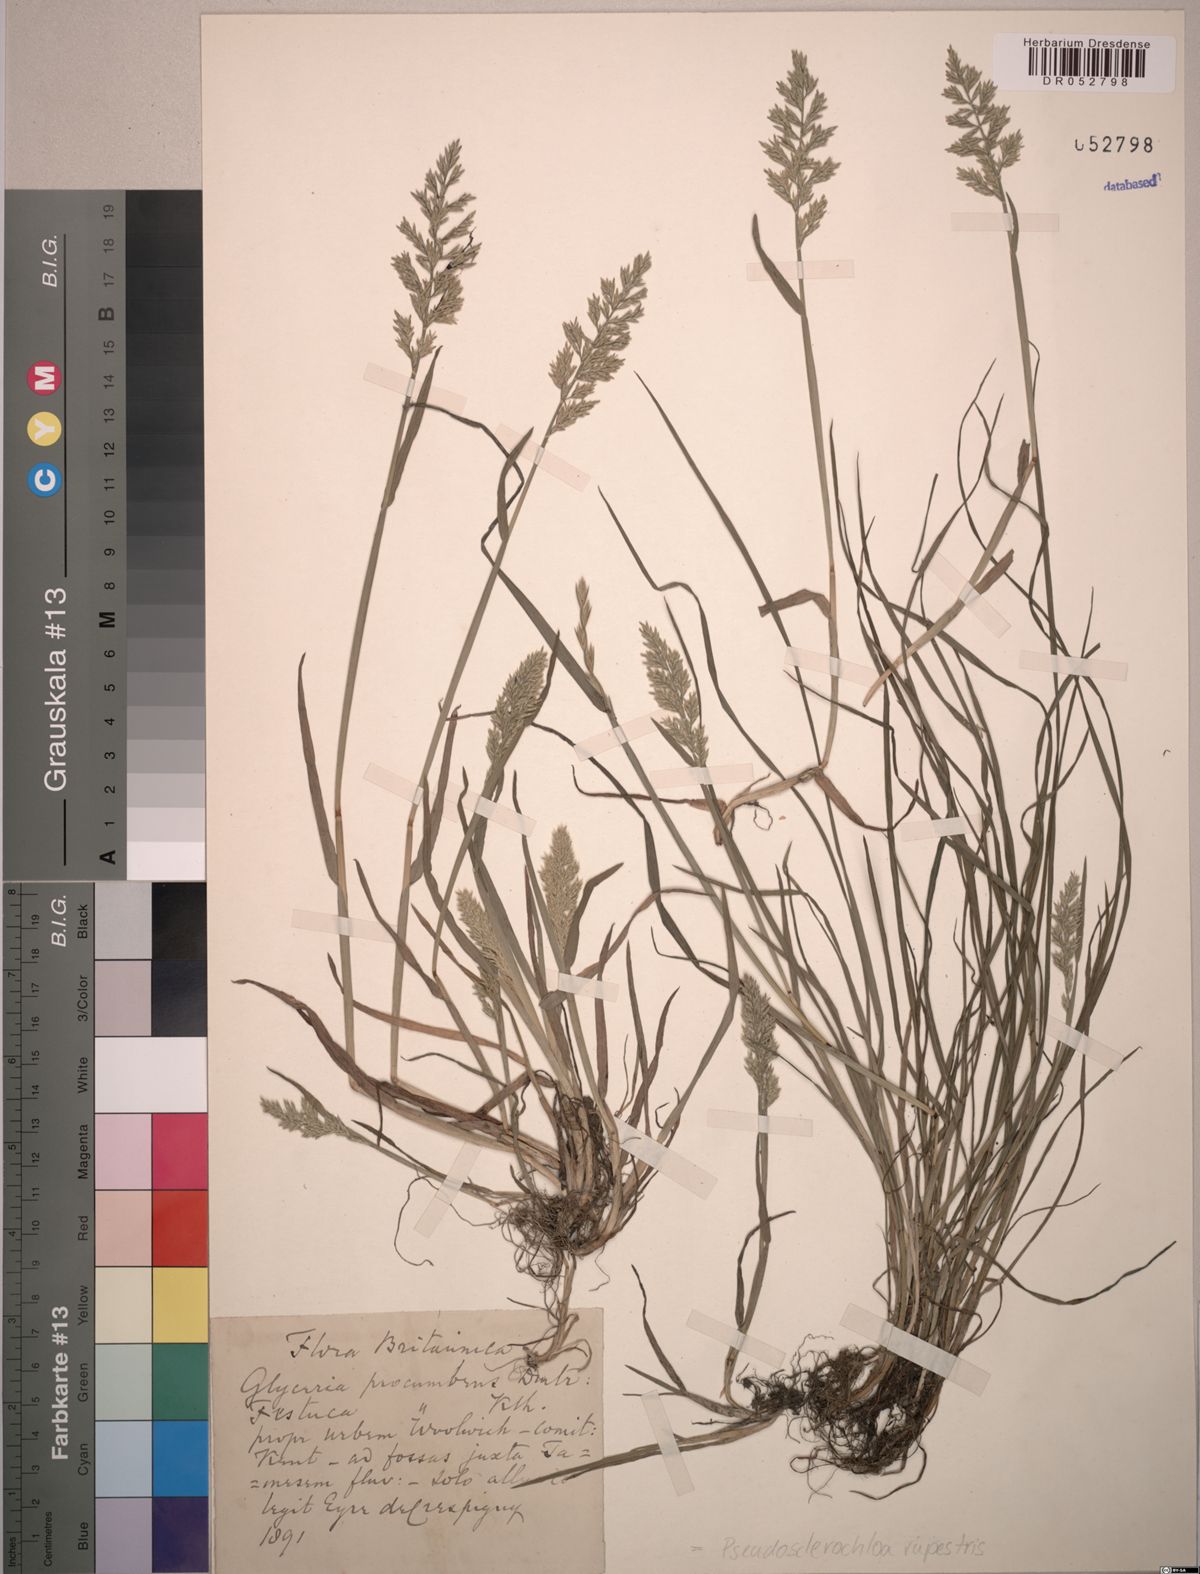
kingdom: Plantae
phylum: Tracheophyta
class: Liliopsida
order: Poales
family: Poaceae
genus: Puccinellia
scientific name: Puccinellia rupestris
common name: Stiff saltmarsh-grass
